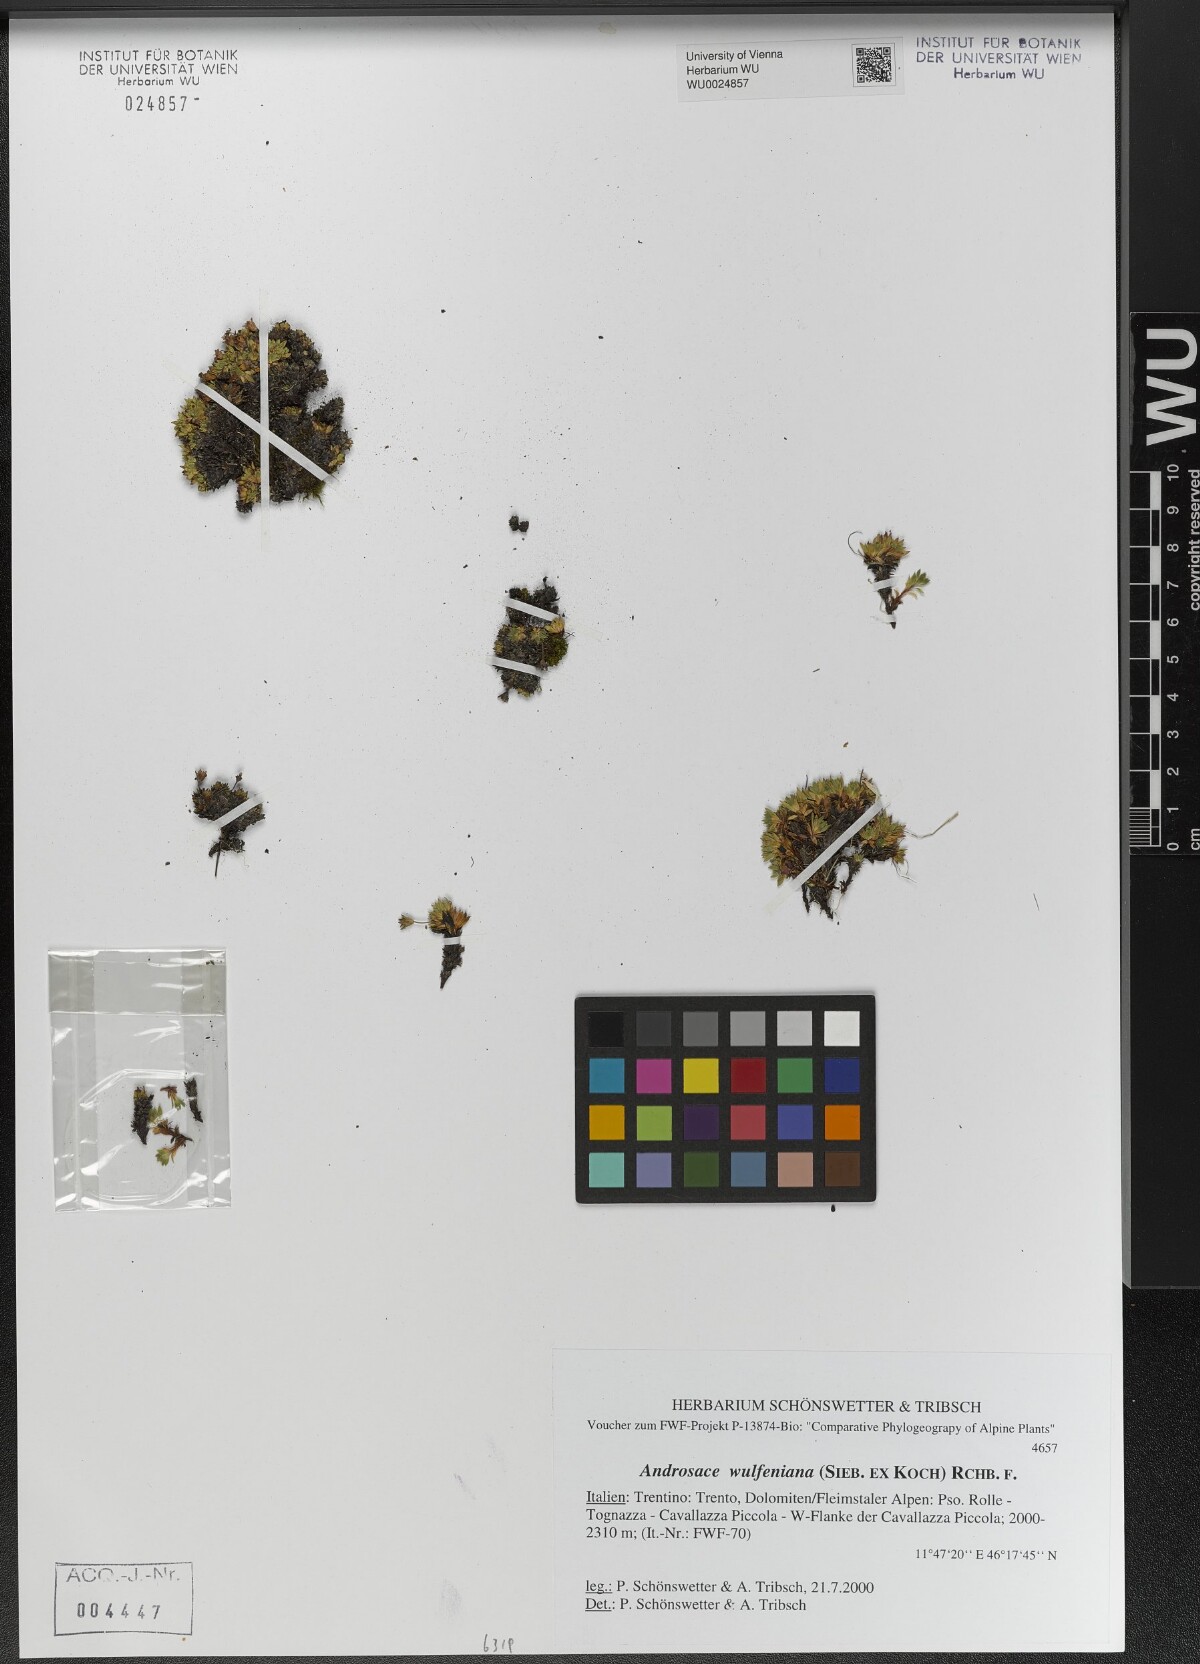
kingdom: Plantae
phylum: Tracheophyta
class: Magnoliopsida
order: Ericales
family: Primulaceae
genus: Androsace
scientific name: Androsace wulfeniana
